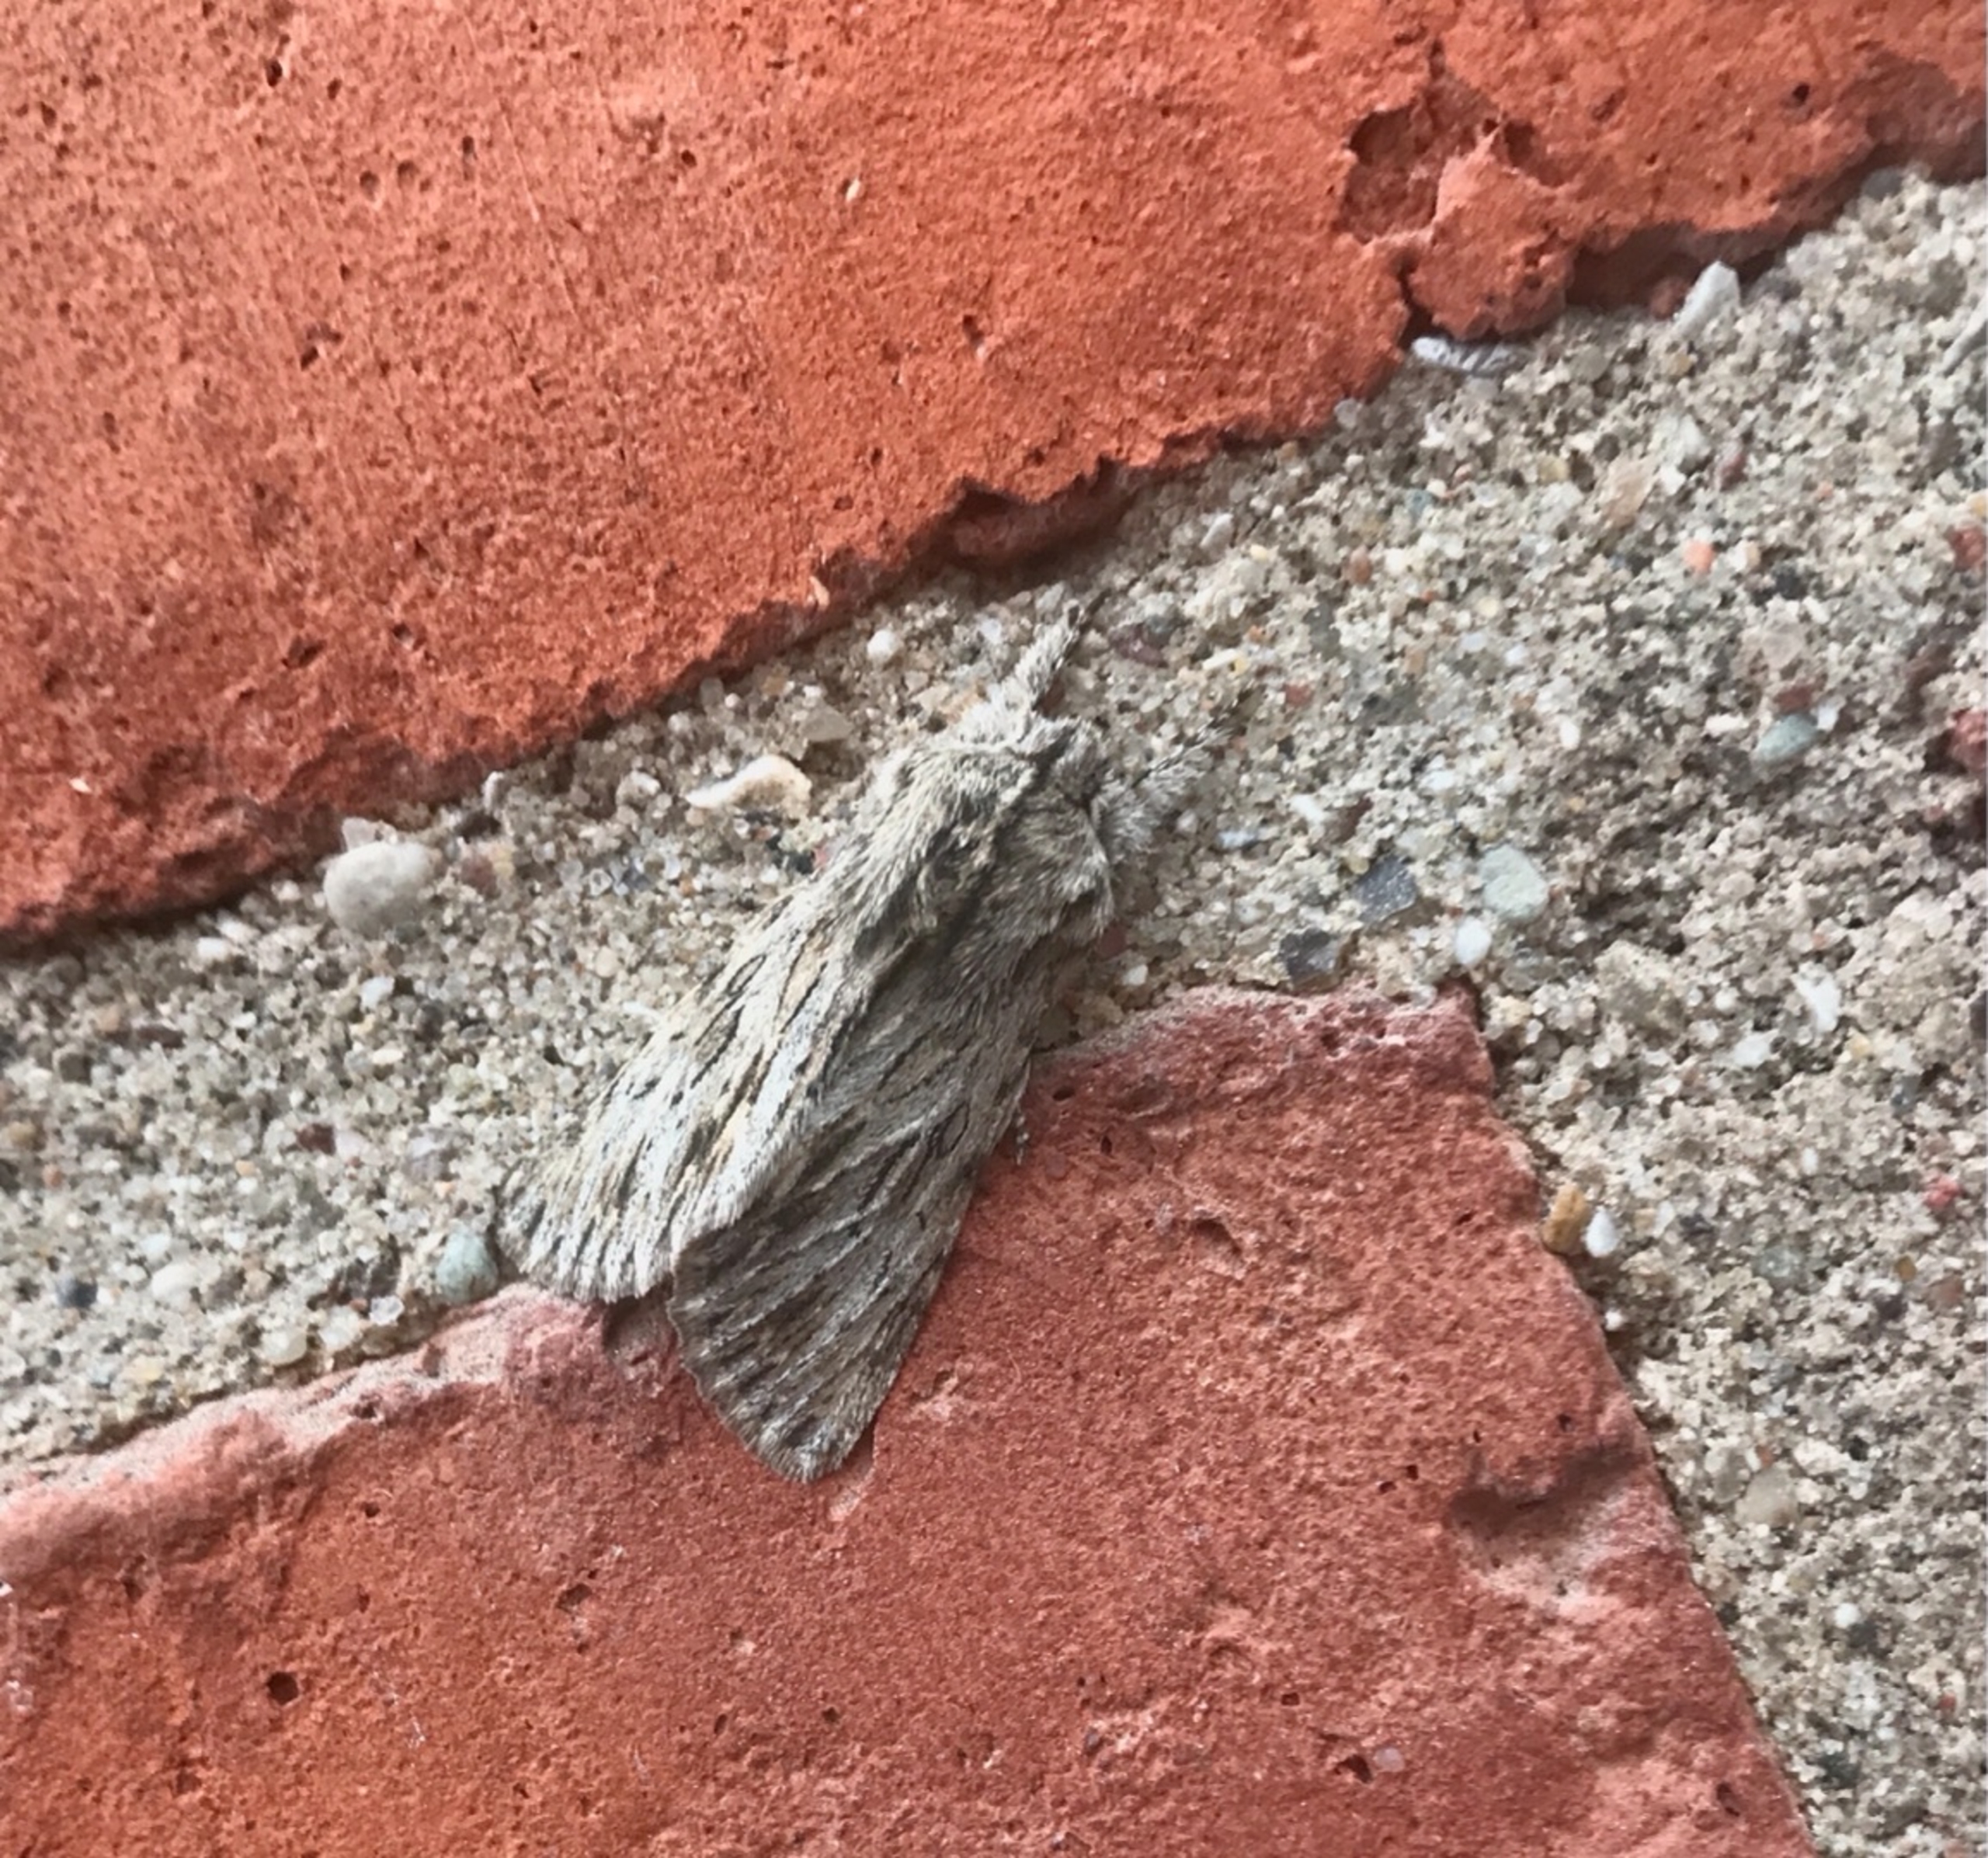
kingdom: Animalia
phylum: Arthropoda
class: Insecta
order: Lepidoptera
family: Noctuidae
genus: Asteroscopus
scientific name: Asteroscopus sphinx
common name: Sfinksugle
